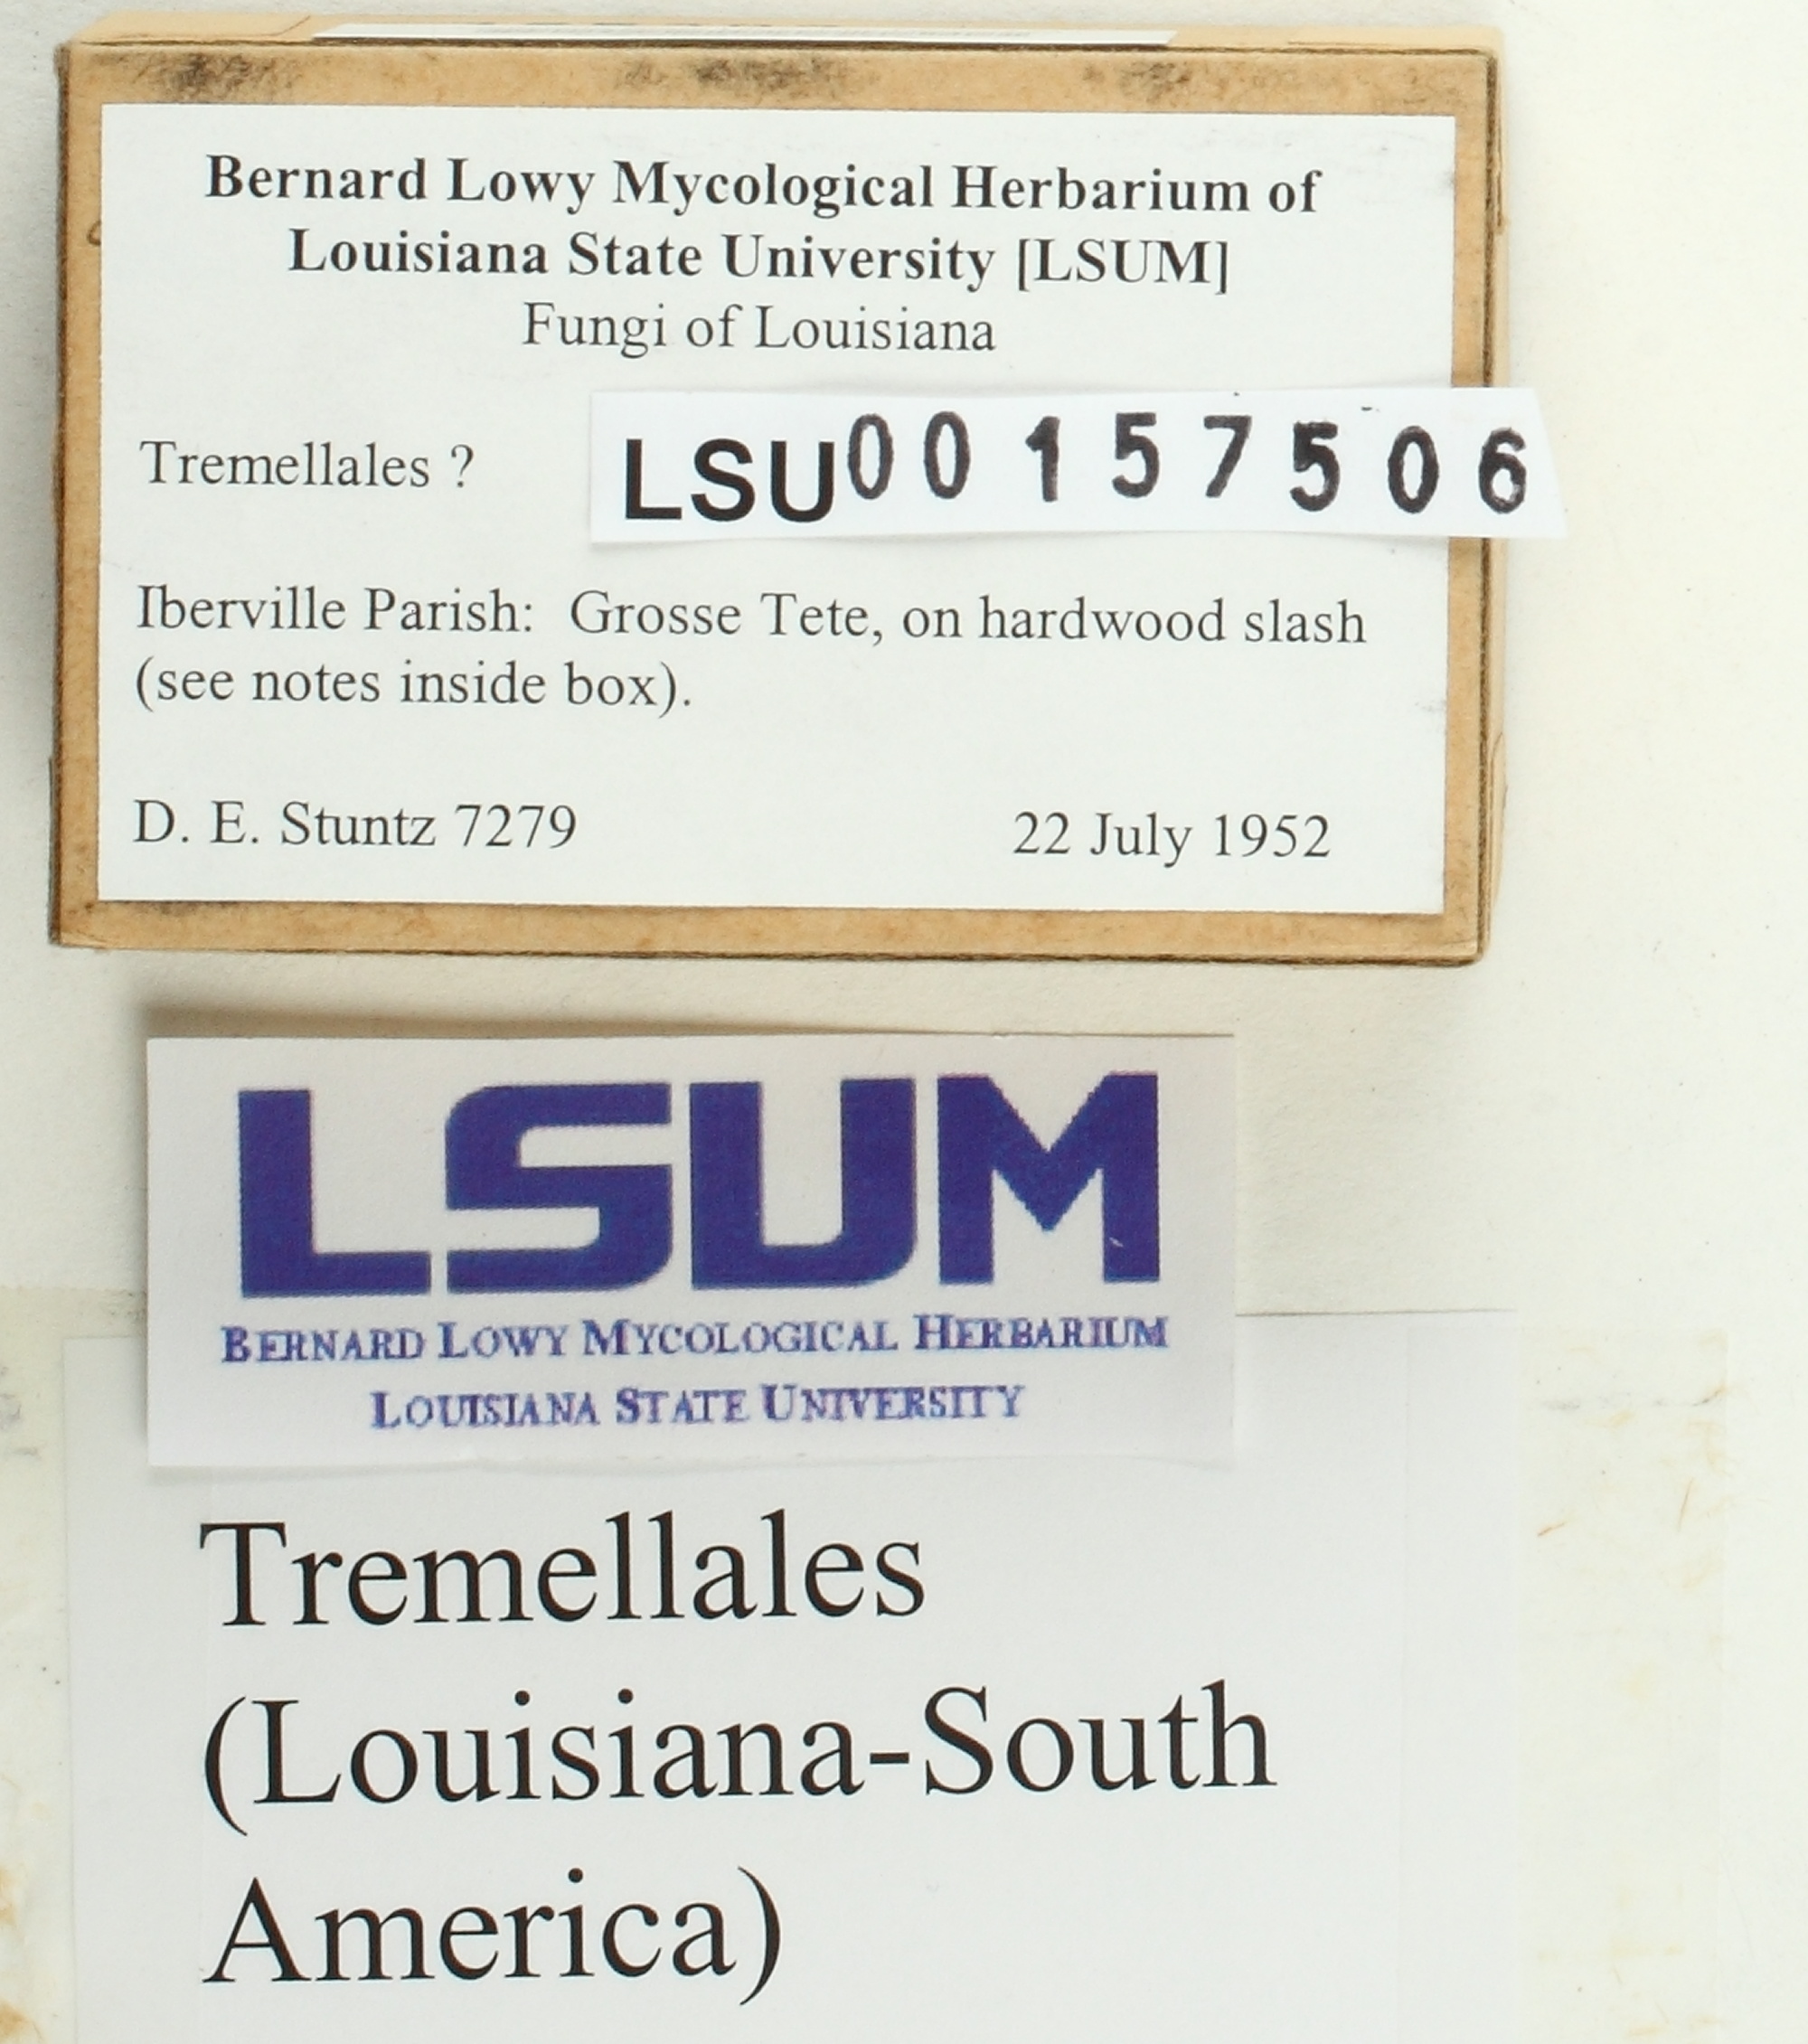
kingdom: Fungi
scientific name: Fungi
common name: Fungi
